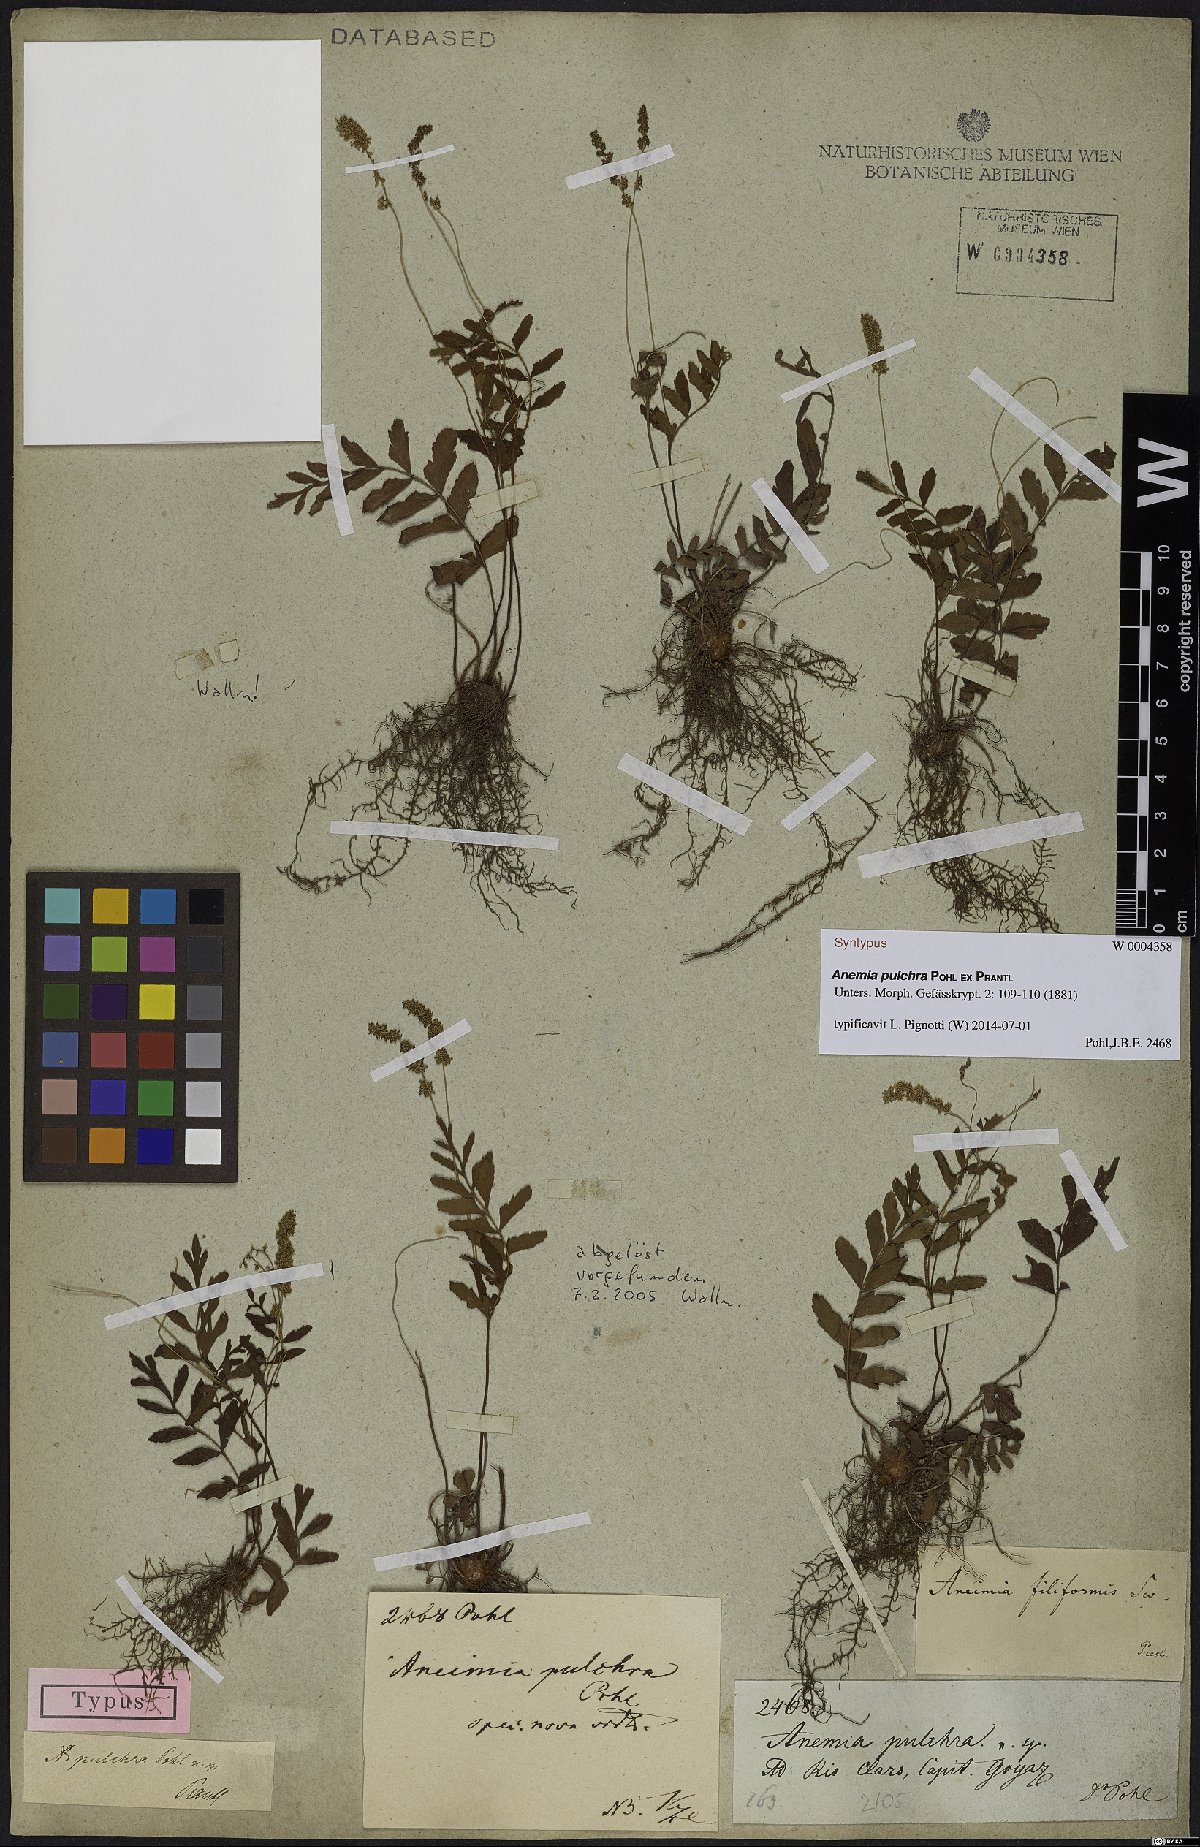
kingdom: Plantae
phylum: Tracheophyta
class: Polypodiopsida
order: Schizaeales
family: Anemiaceae
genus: Anemia
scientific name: Anemia hispida
